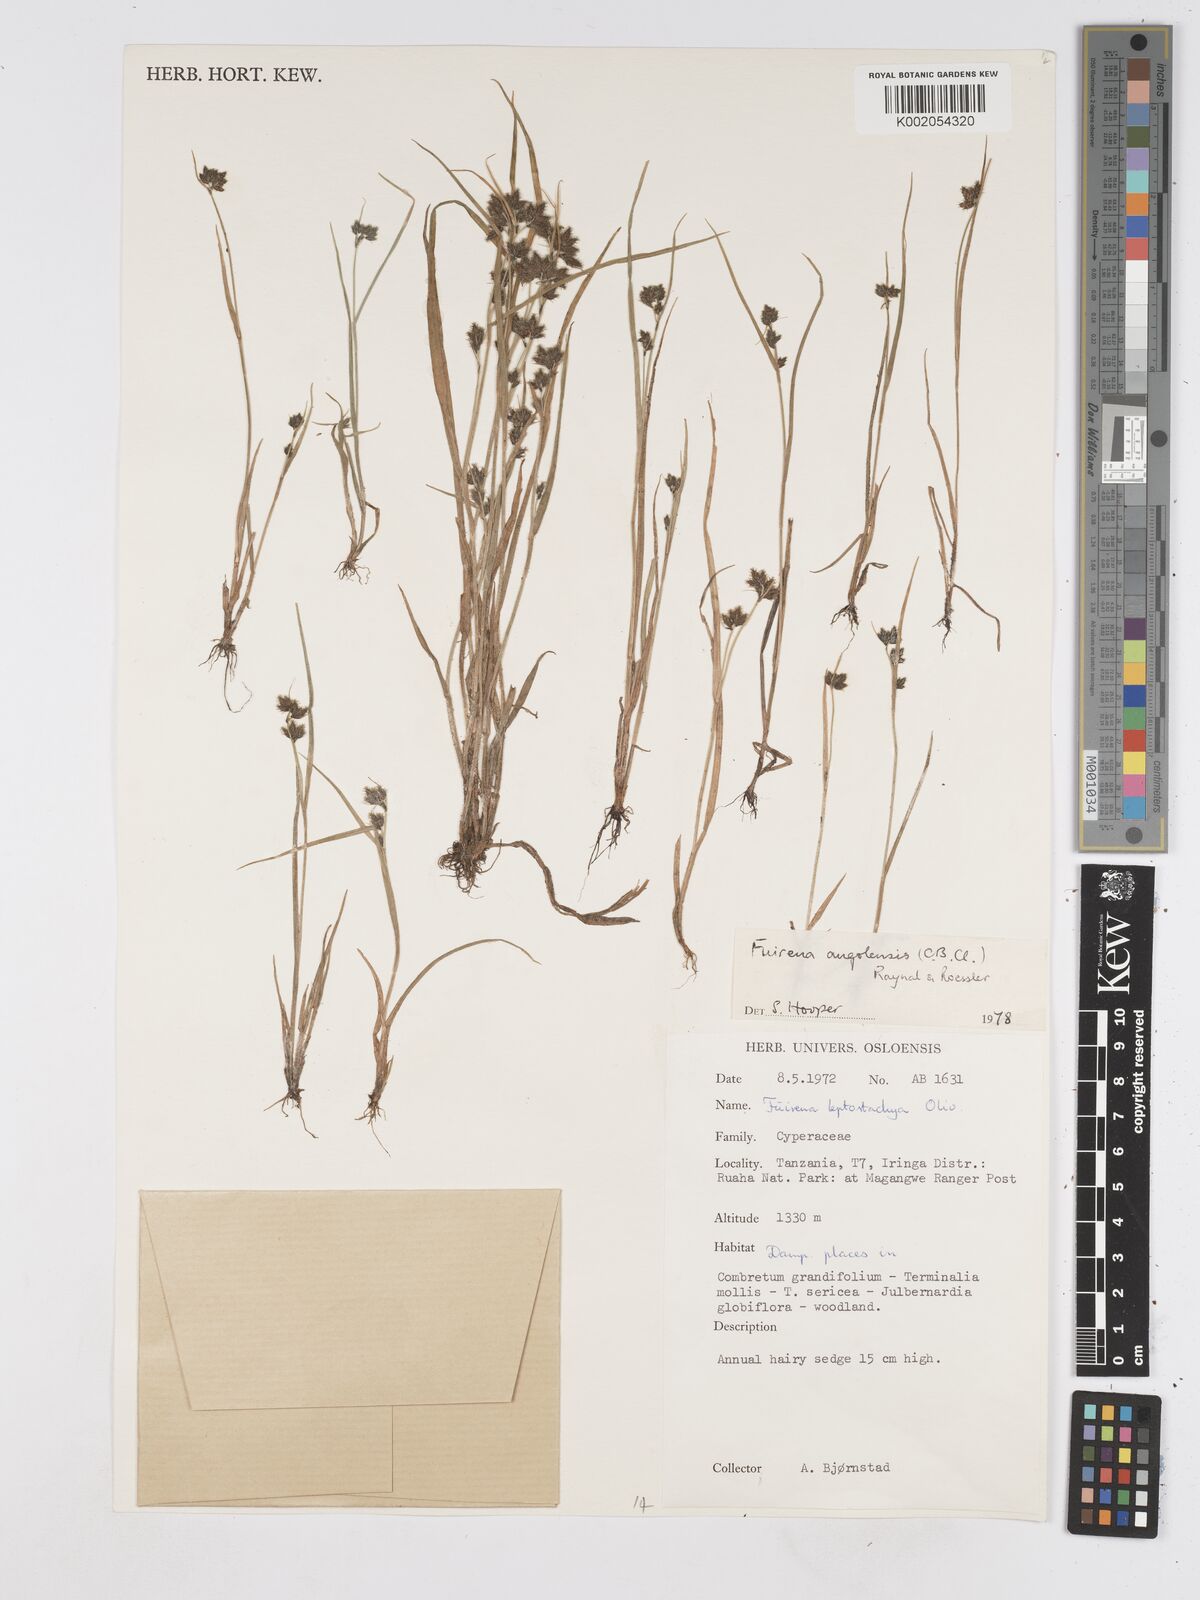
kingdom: Plantae
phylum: Tracheophyta
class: Liliopsida
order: Poales
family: Cyperaceae
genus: Fuirena
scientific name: Fuirena angolensis
